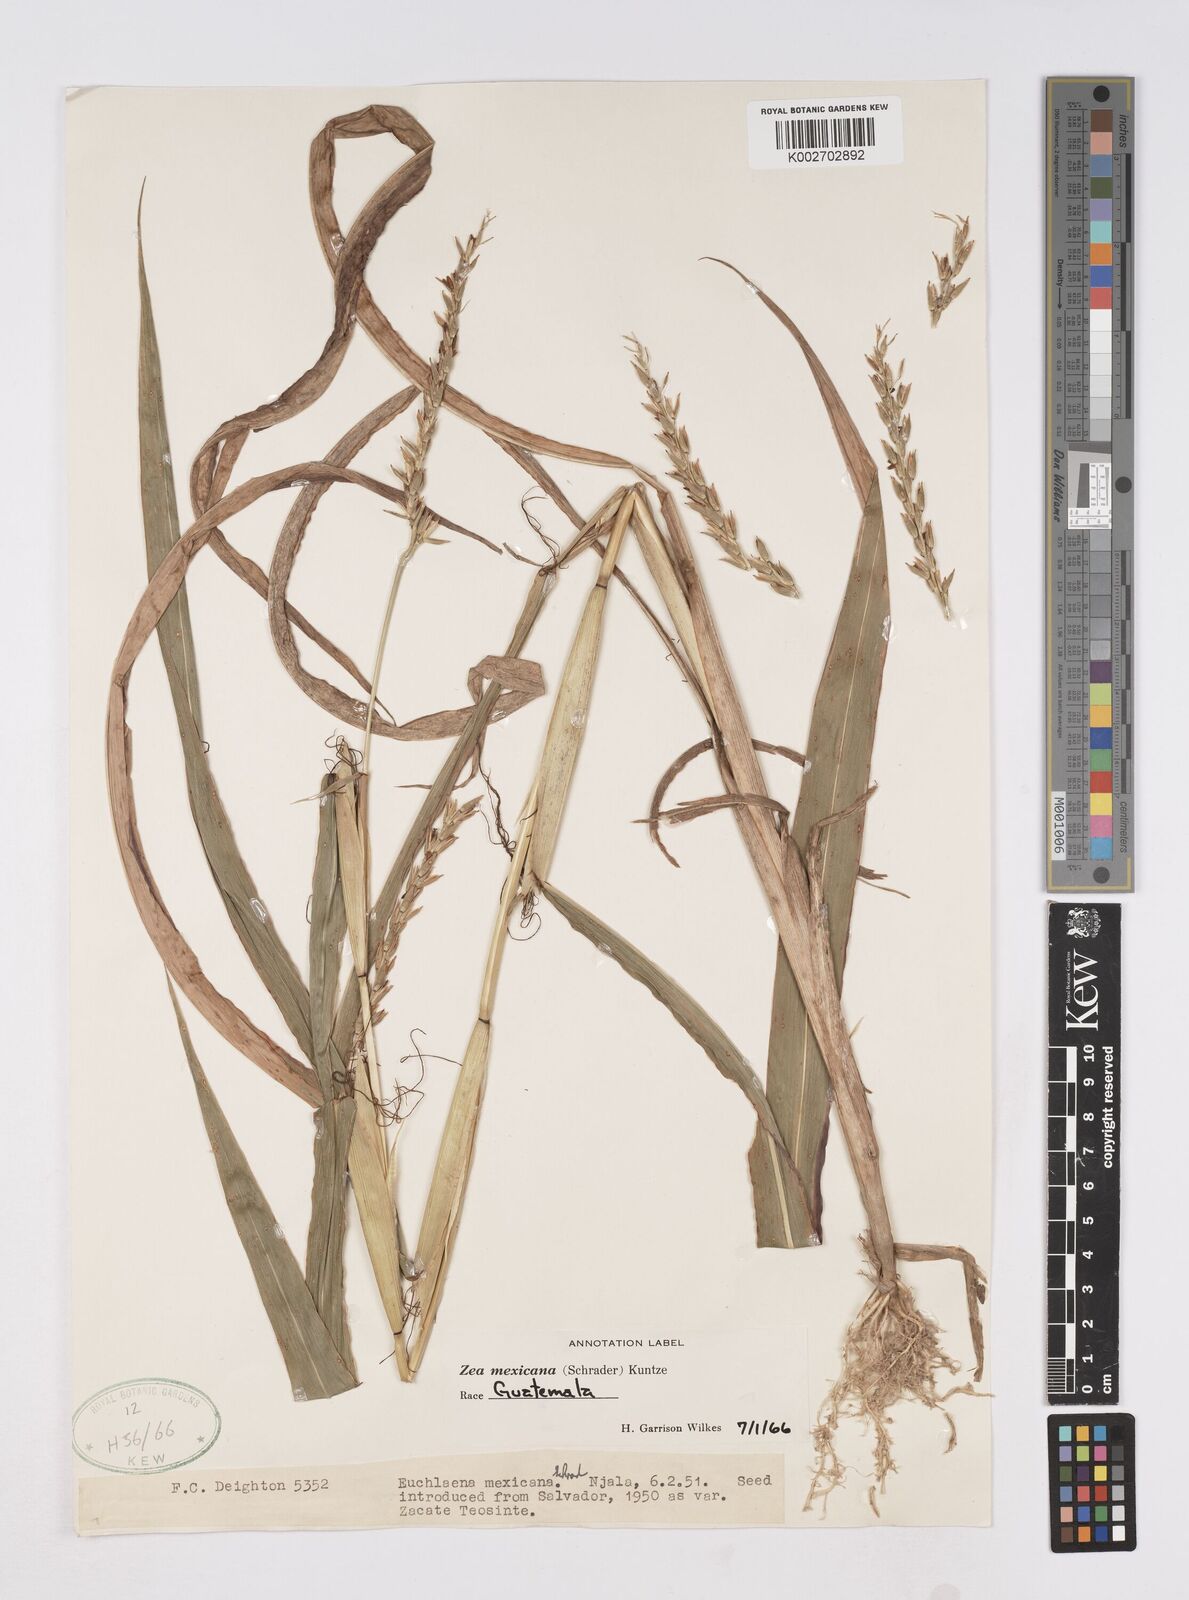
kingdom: Plantae
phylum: Tracheophyta
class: Liliopsida
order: Poales
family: Poaceae
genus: Zea
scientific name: Zea mexicana
